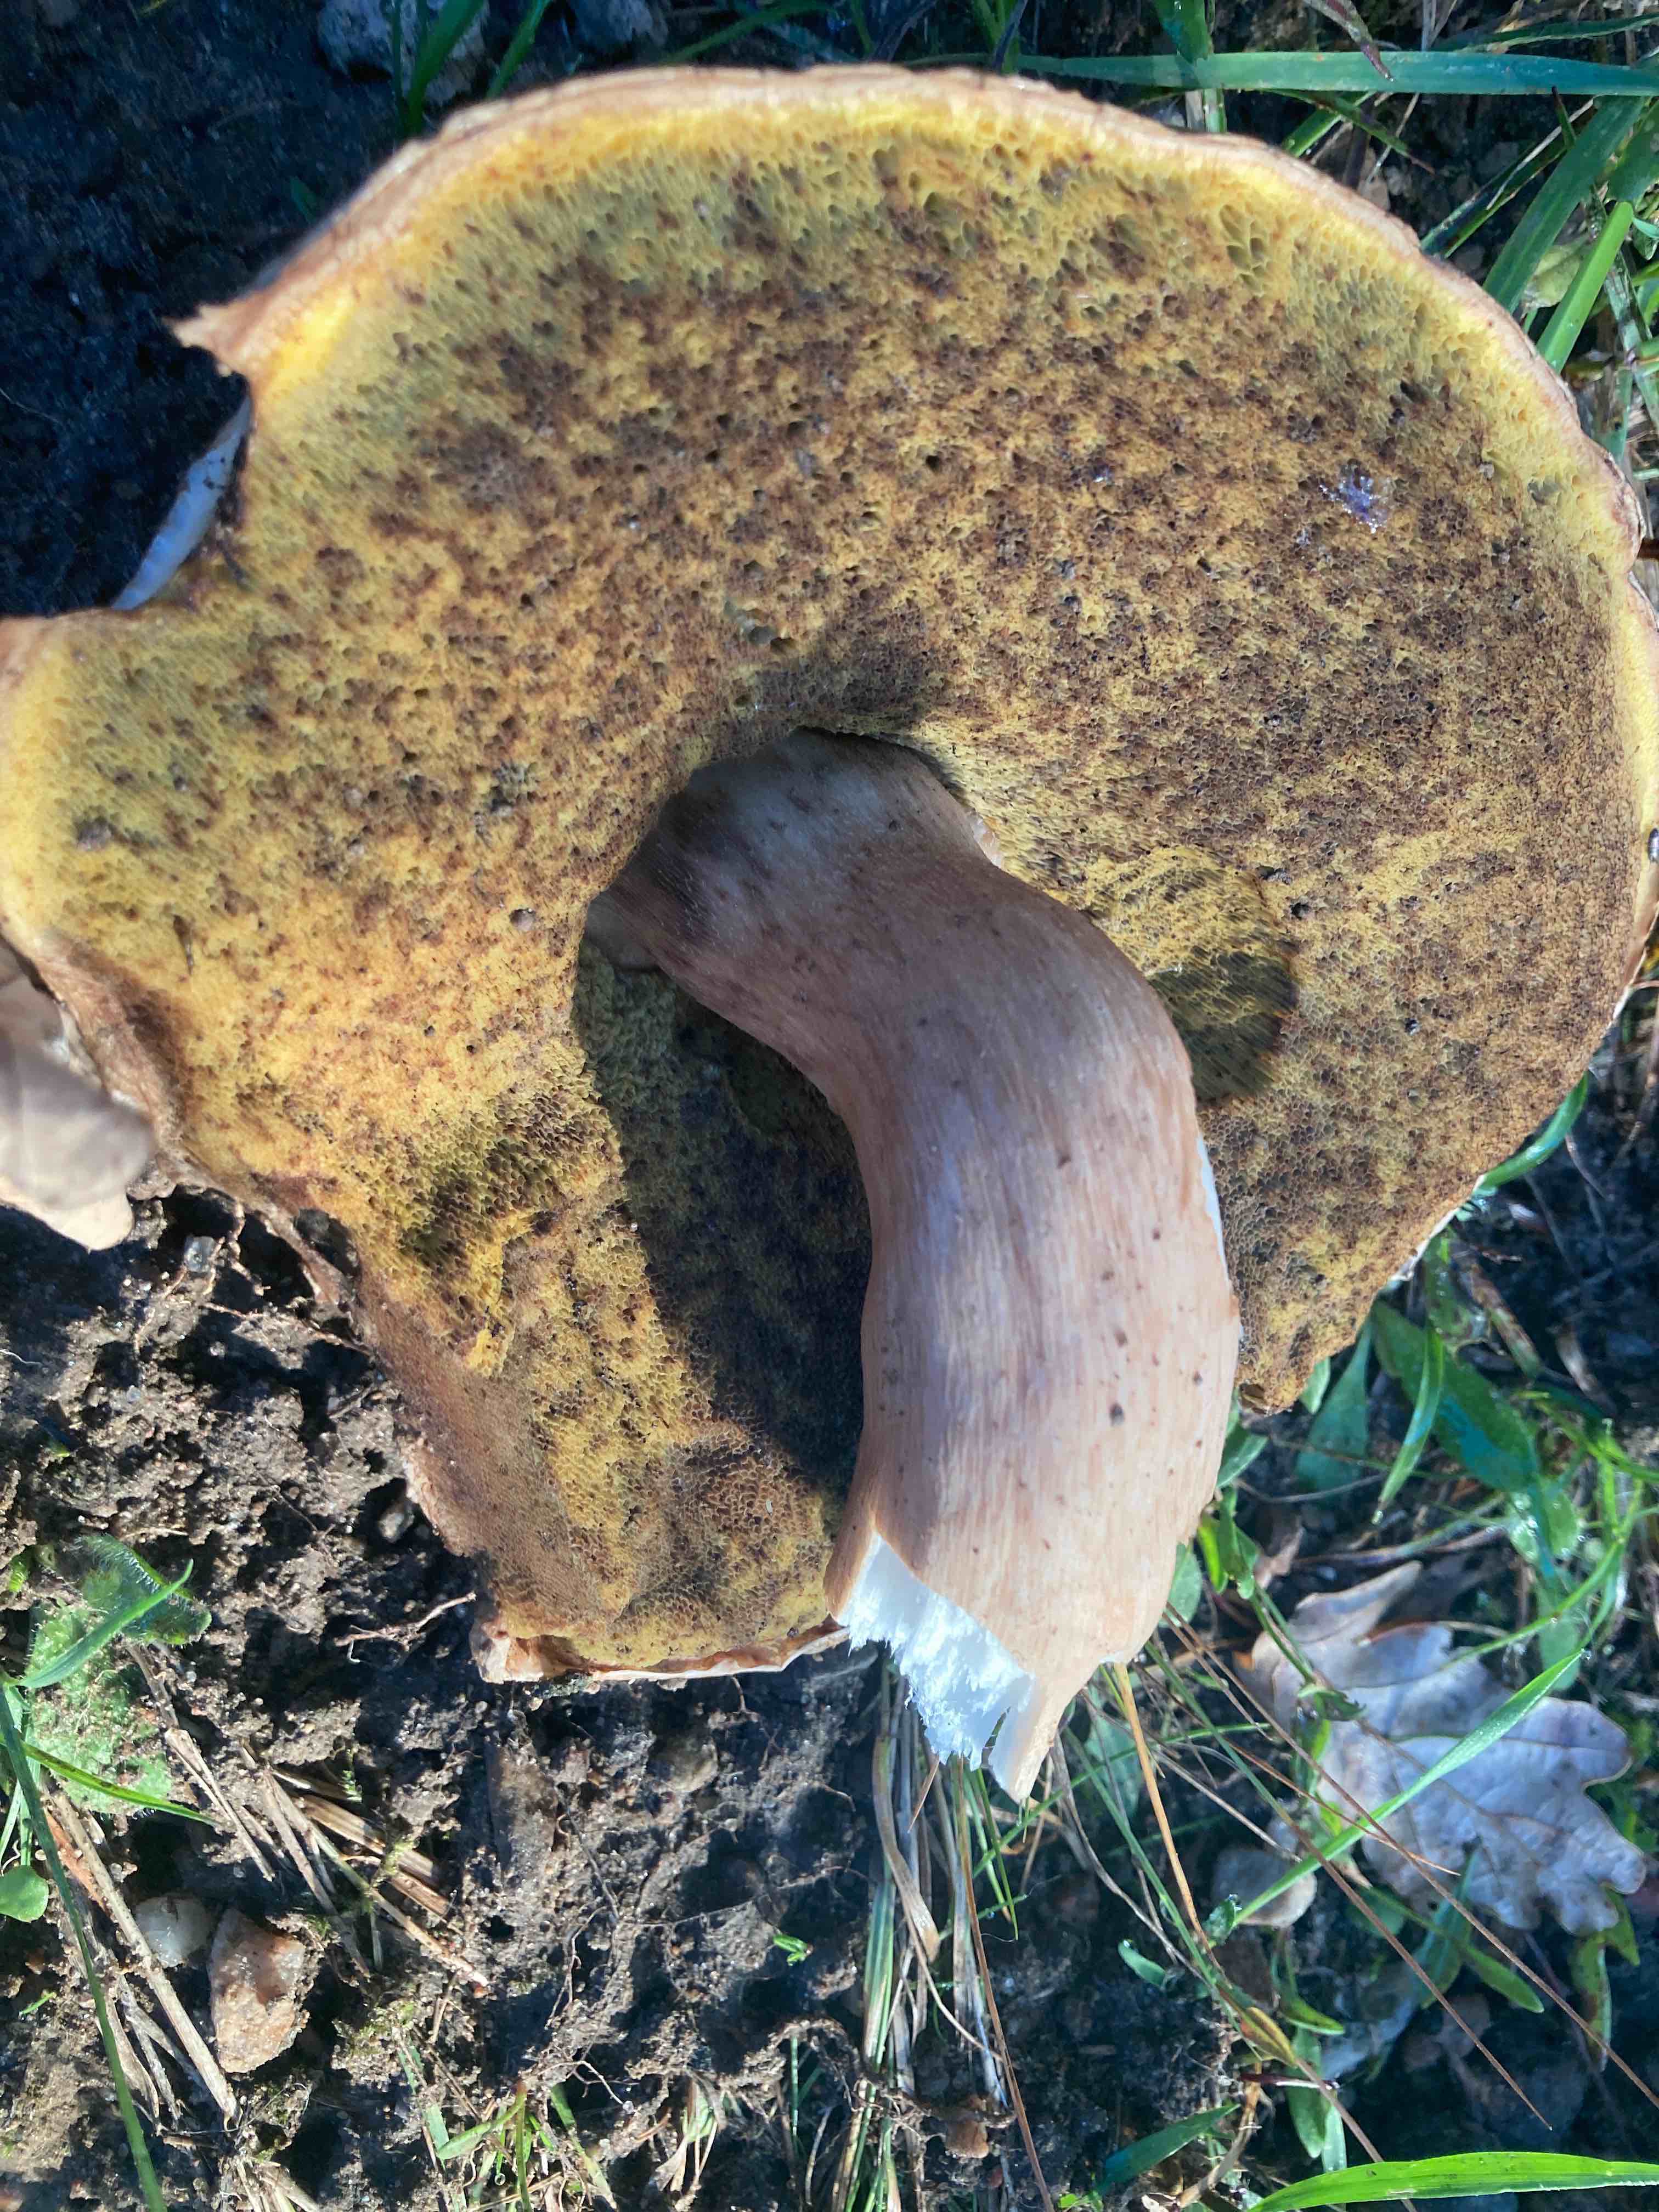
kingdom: Fungi
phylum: Basidiomycota
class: Agaricomycetes
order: Boletales
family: Boletaceae
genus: Boletus
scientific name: Boletus edulis
